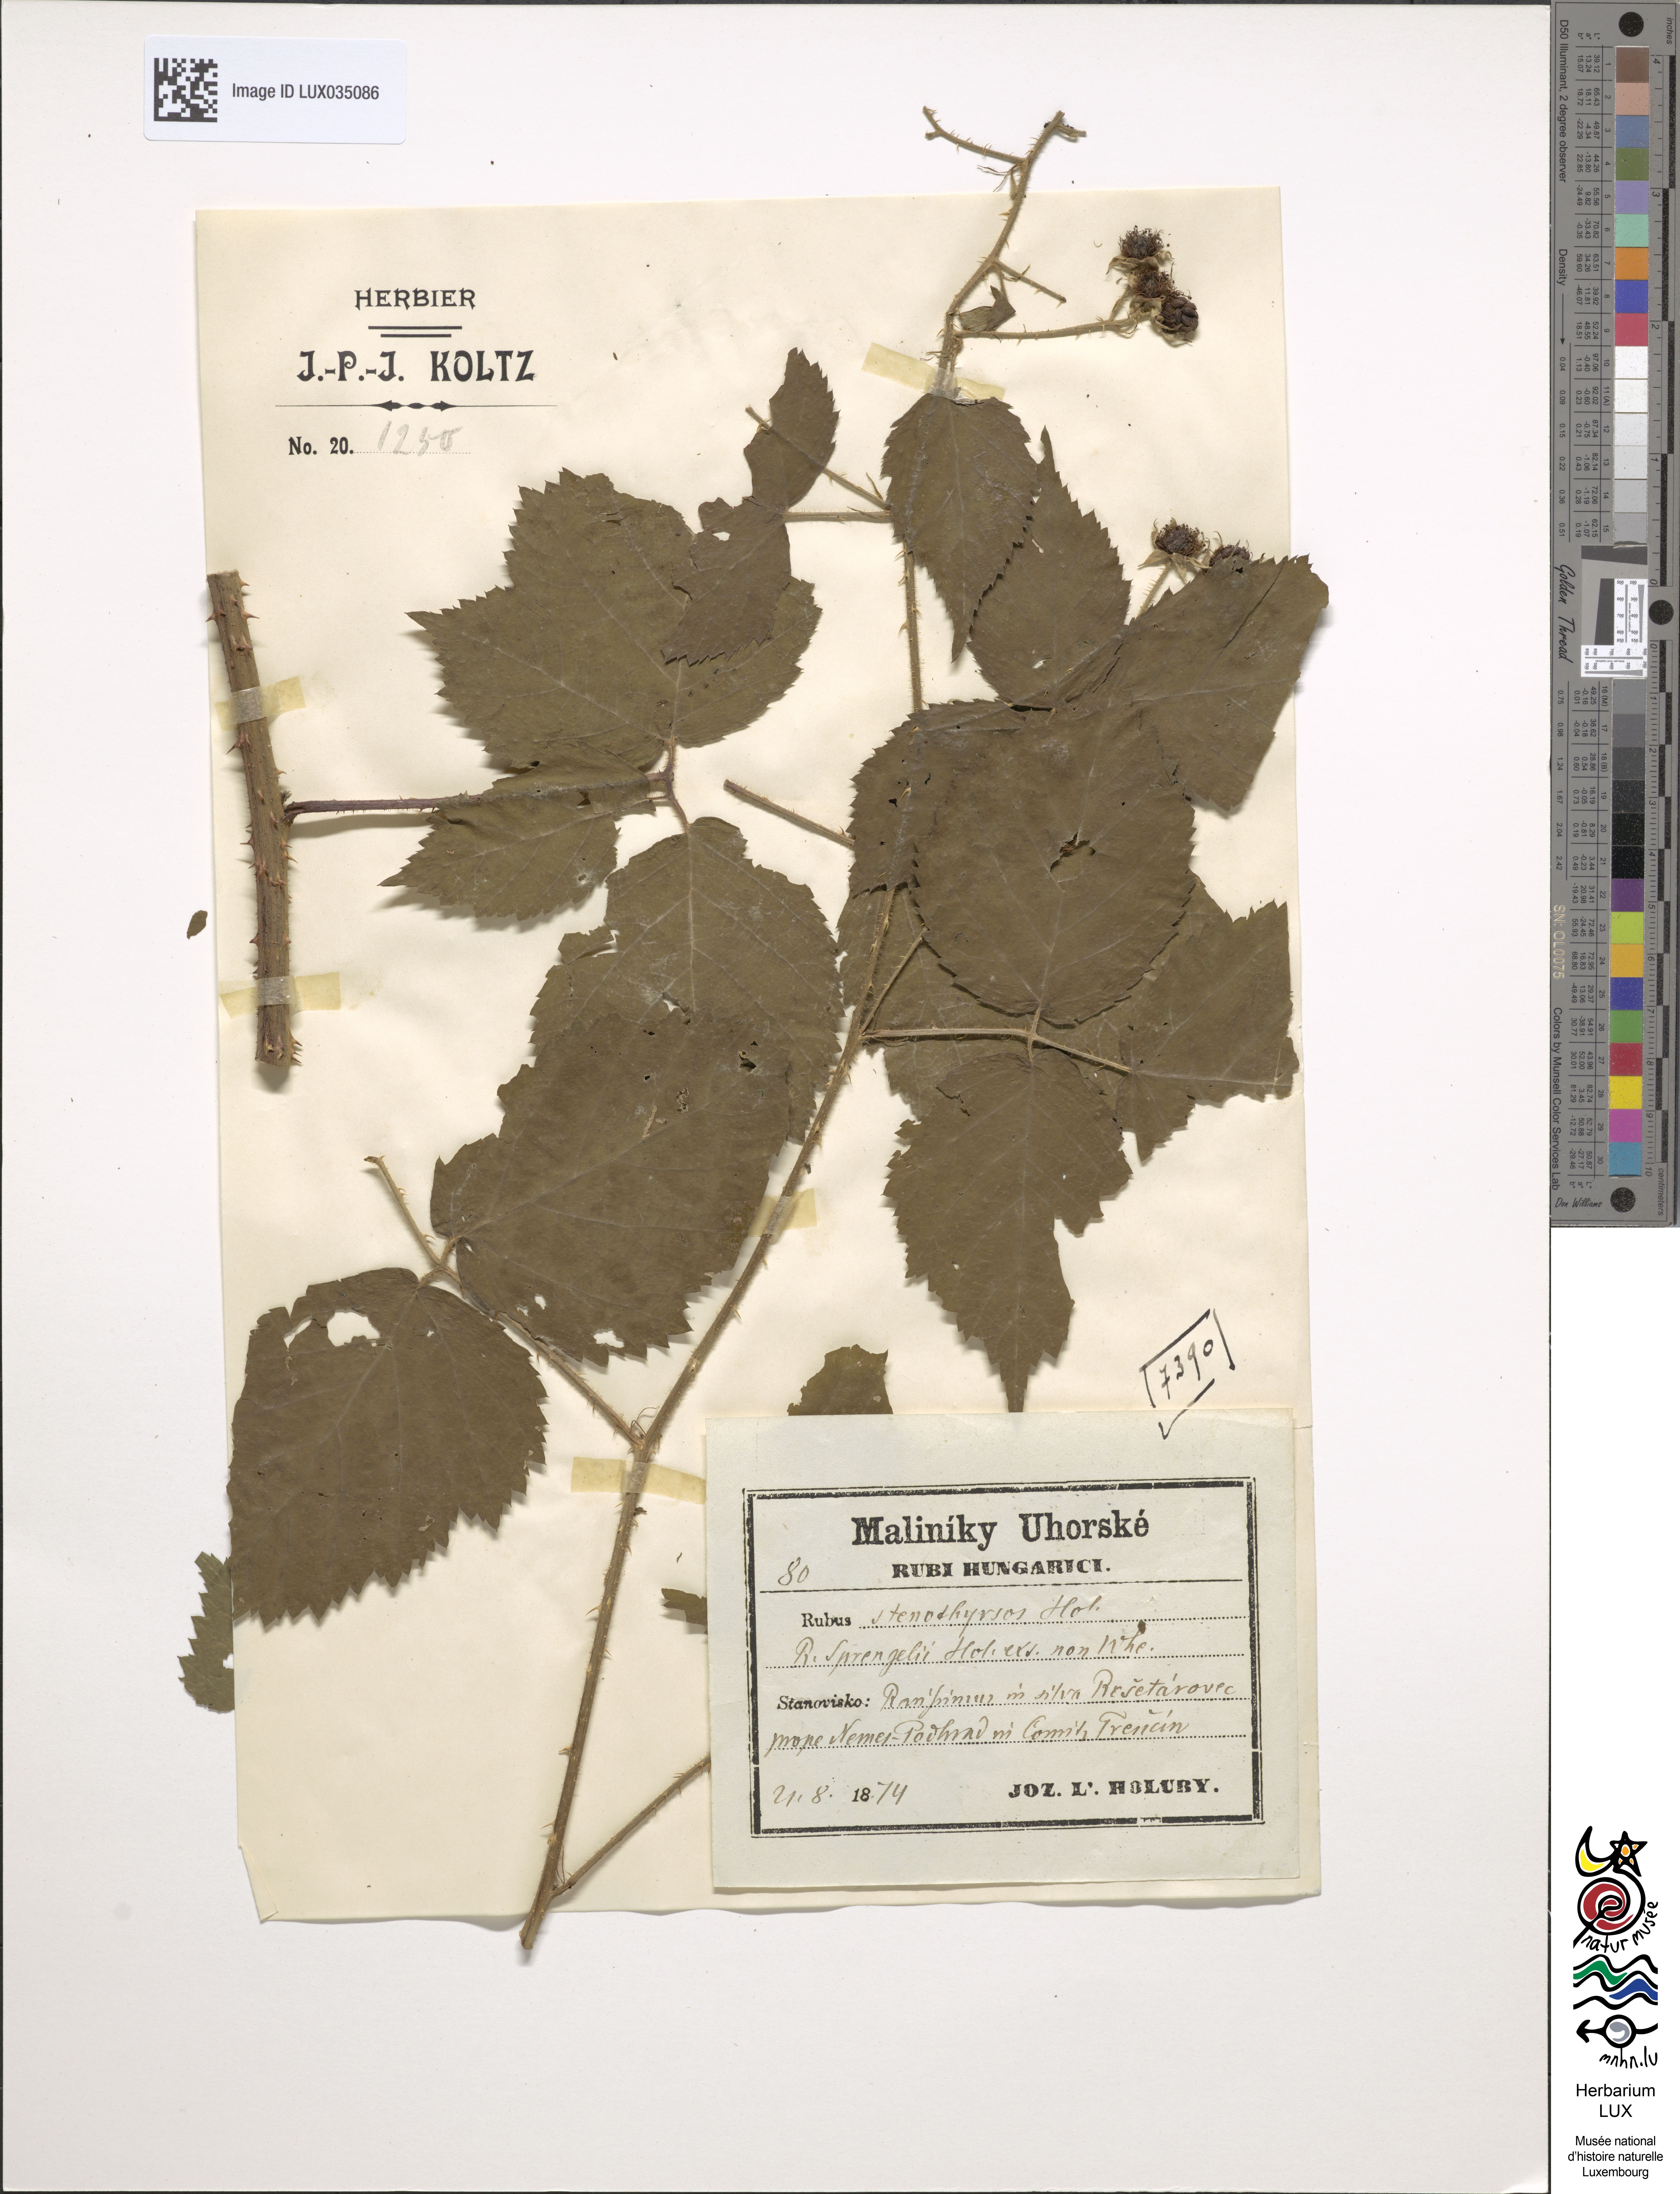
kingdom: Plantae
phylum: Tracheophyta
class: Magnoliopsida
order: Rosales
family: Rosaceae
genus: Rubus
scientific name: Rubus stenothyrsos
